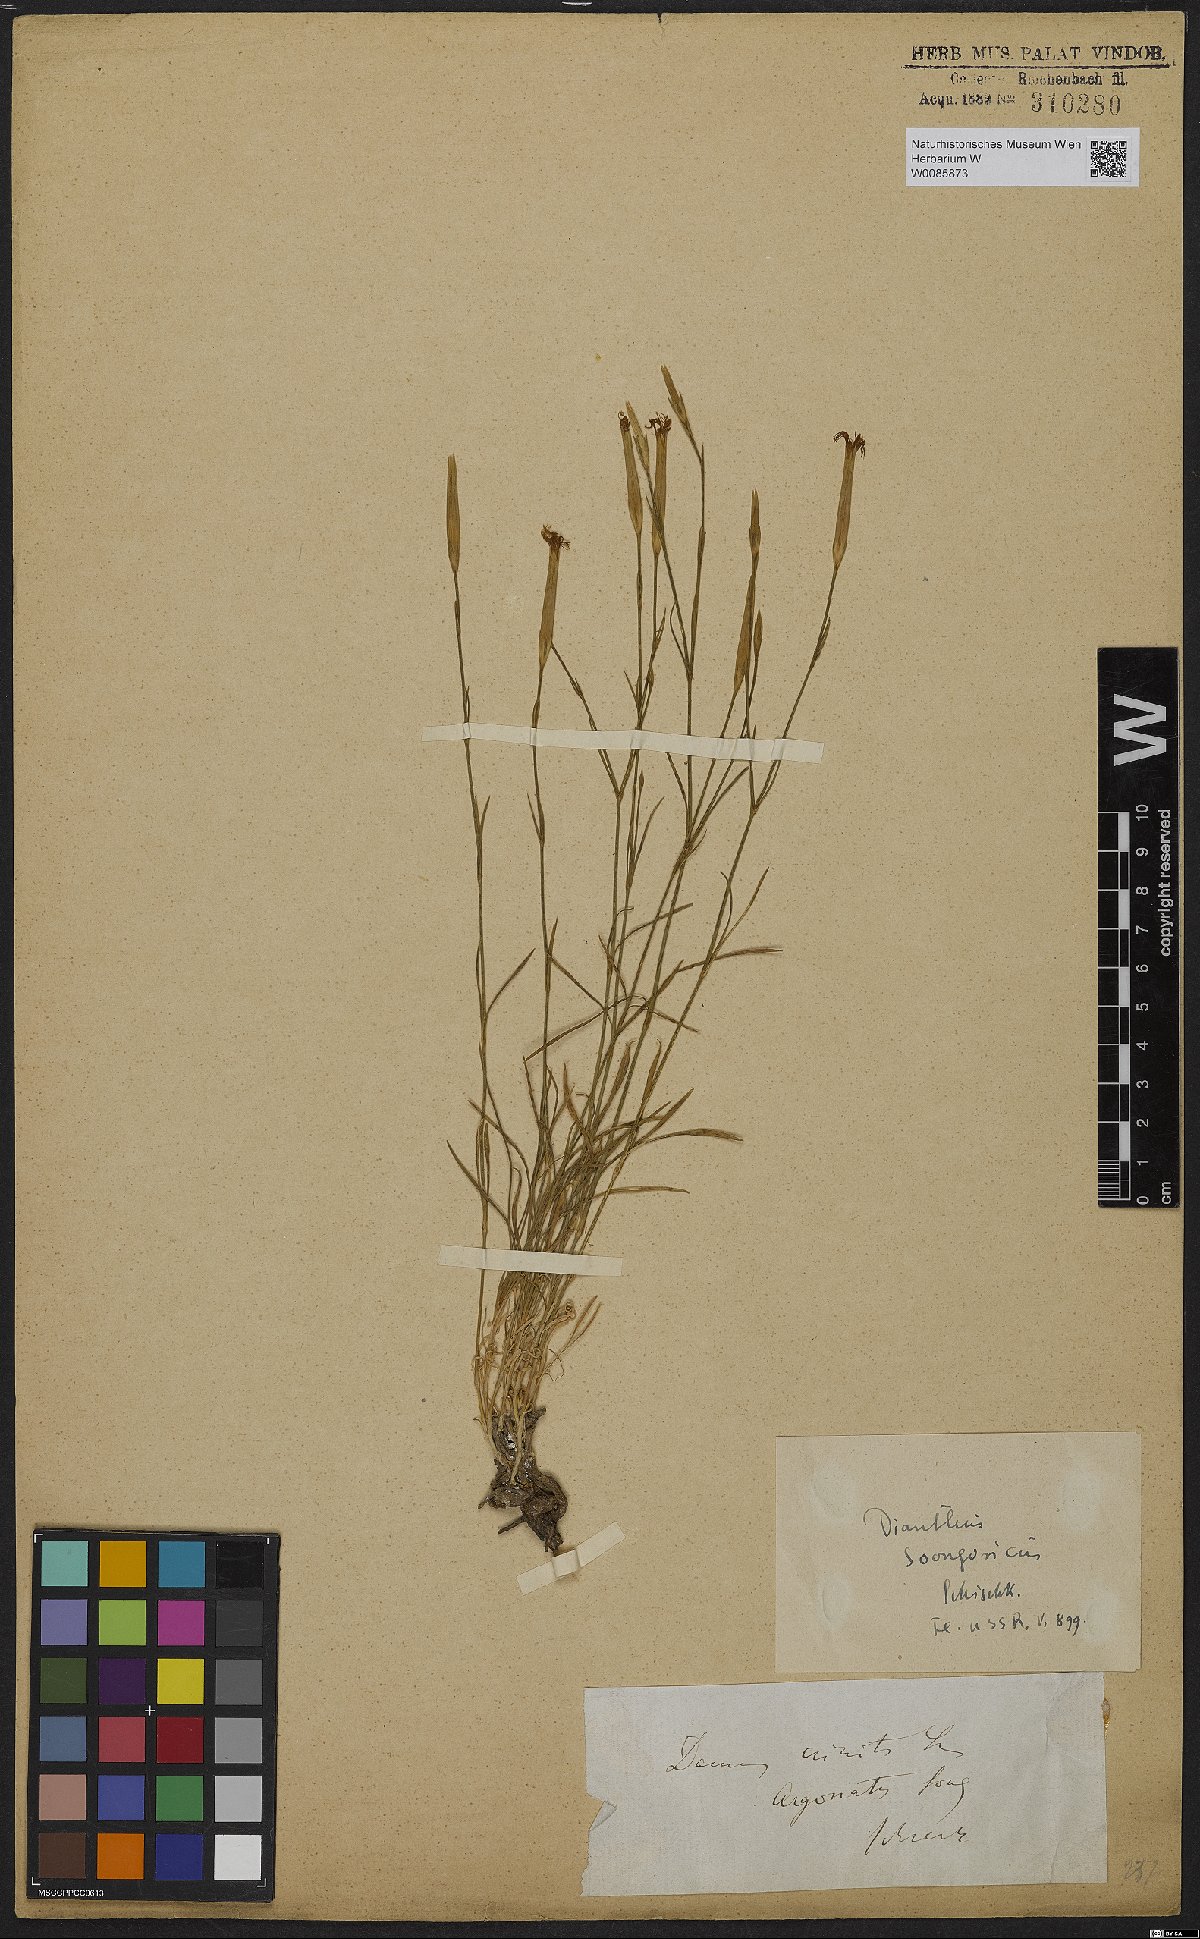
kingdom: Plantae
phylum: Tracheophyta
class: Magnoliopsida
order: Caryophyllales
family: Caryophyllaceae
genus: Dianthus
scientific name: Dianthus crinitus
